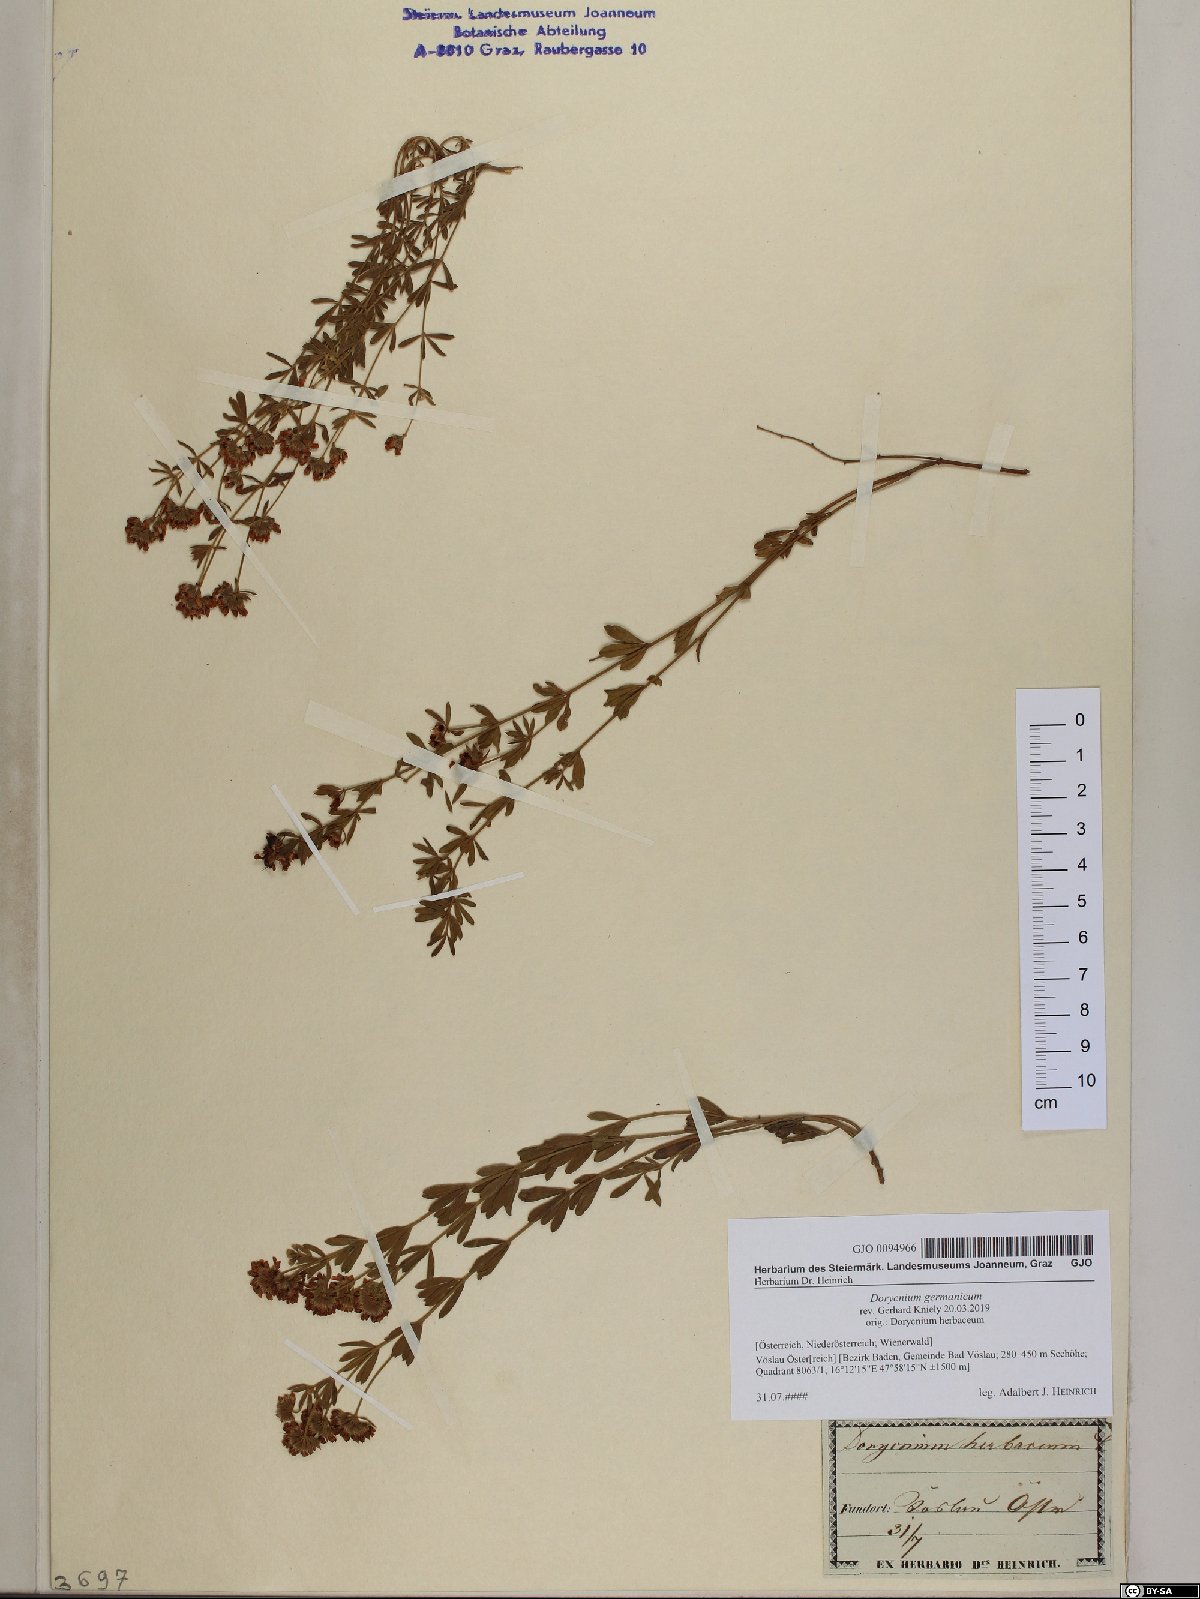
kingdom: Plantae
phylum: Tracheophyta
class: Magnoliopsida
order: Fabales
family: Fabaceae
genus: Lotus
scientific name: Lotus germanicus
